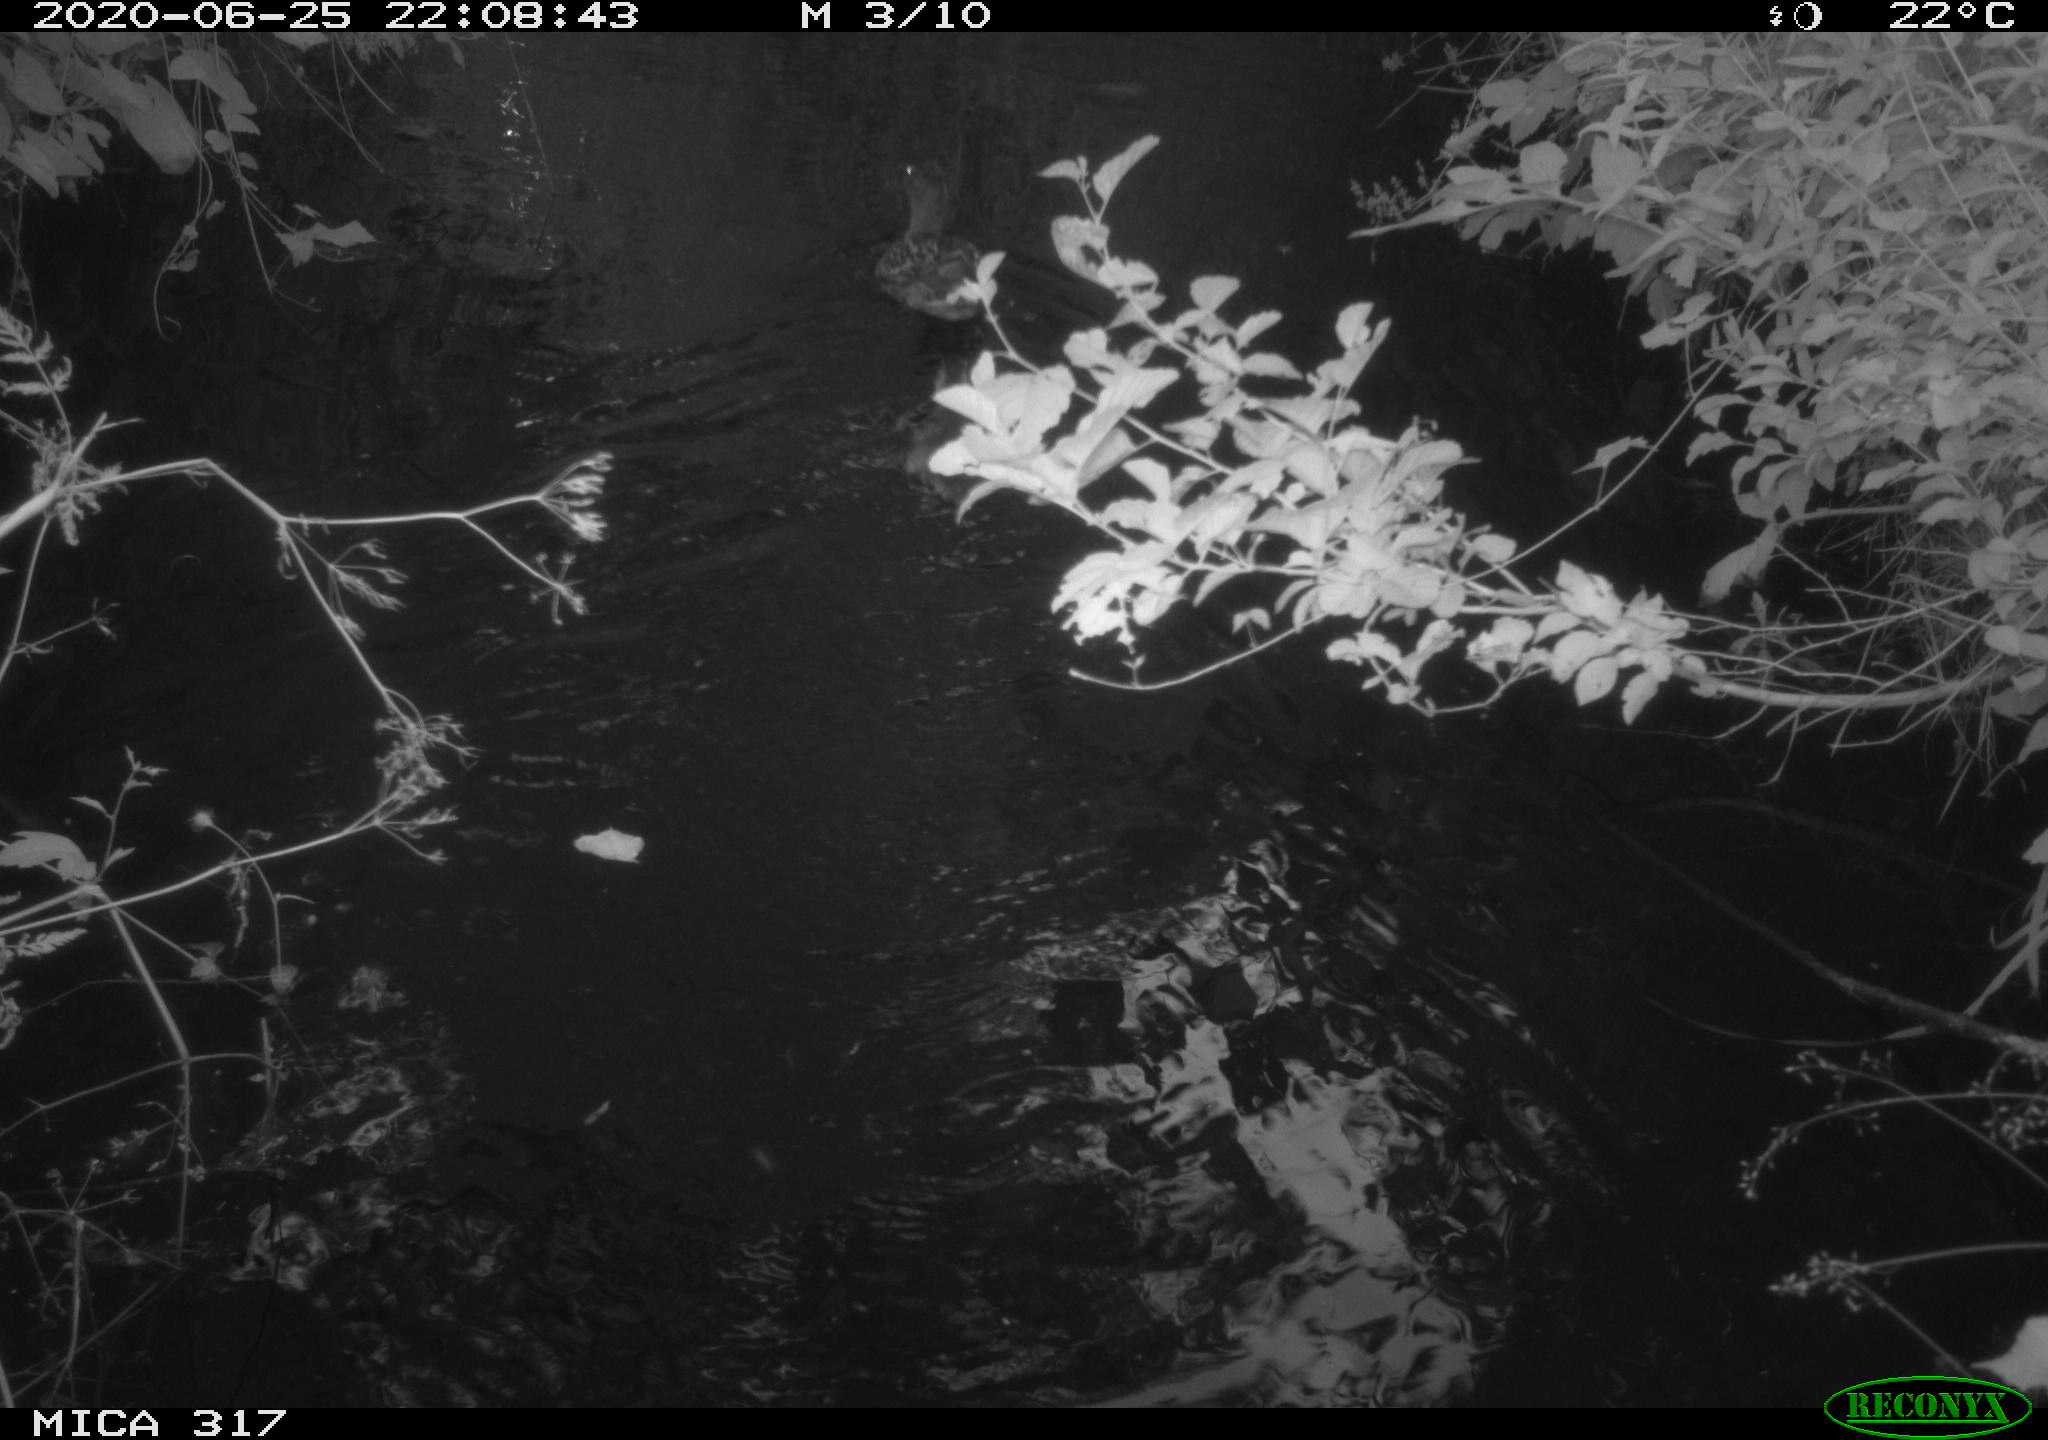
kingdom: Animalia
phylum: Chordata
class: Aves
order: Anseriformes
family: Anatidae
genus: Anas
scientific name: Anas platyrhynchos
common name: Mallard
